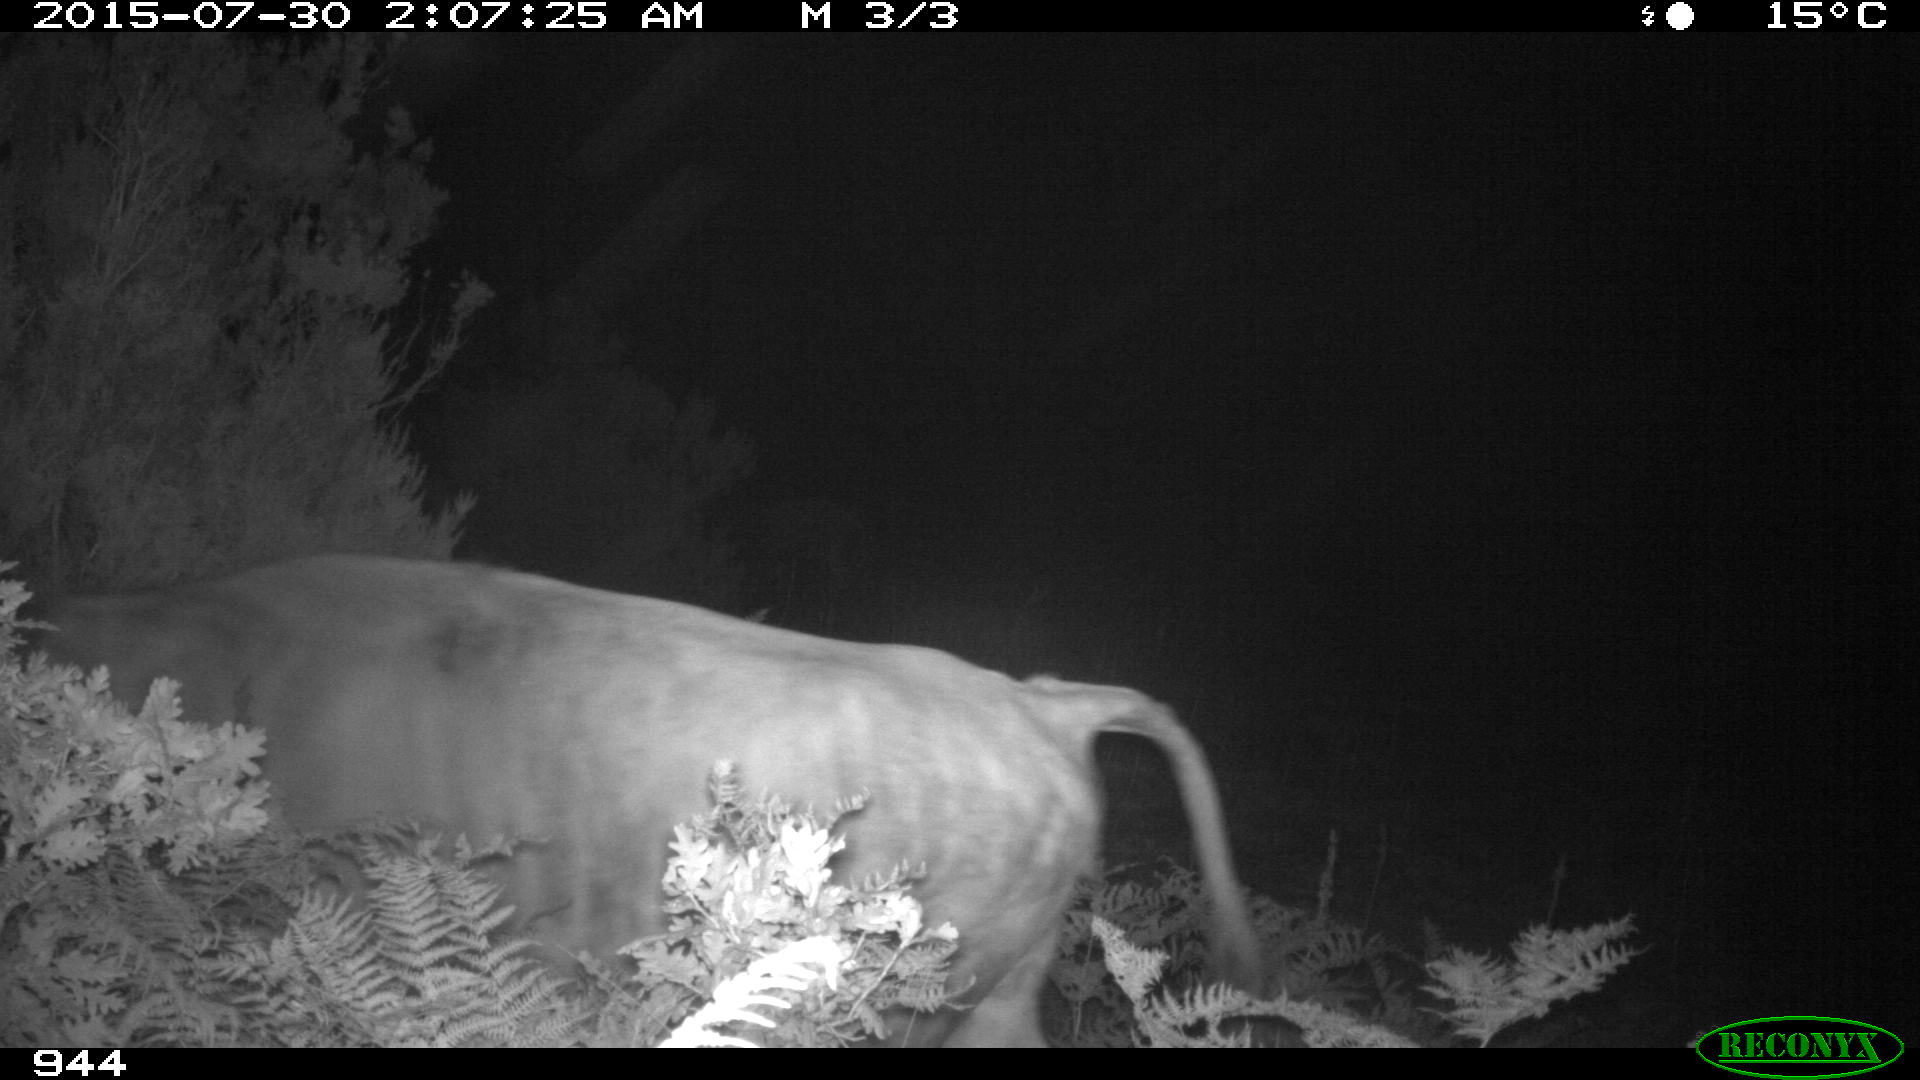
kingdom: Animalia
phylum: Chordata
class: Mammalia
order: Artiodactyla
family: Bovidae
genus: Bos
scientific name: Bos taurus
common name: Domesticated cattle
